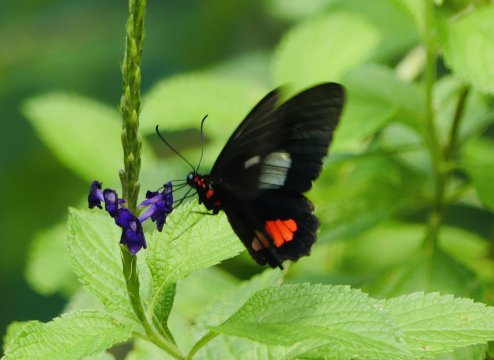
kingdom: Animalia
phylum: Arthropoda
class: Insecta
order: Lepidoptera
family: Papilionidae
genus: Parides
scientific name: Parides eurimedes
